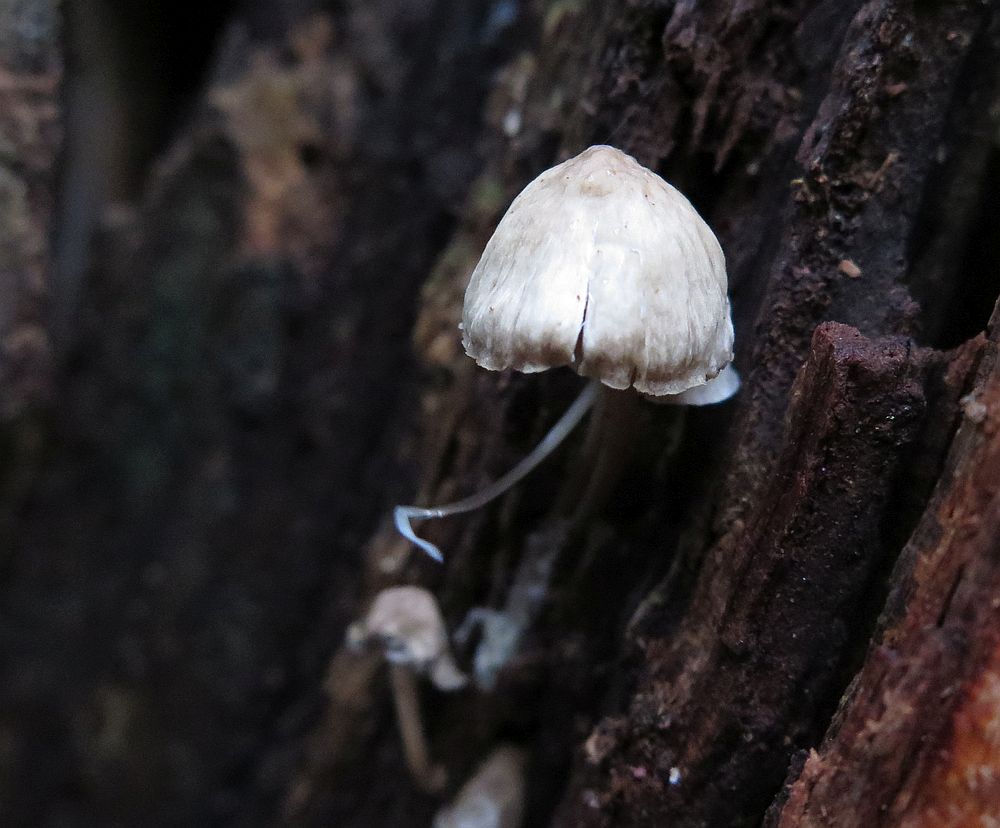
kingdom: Fungi
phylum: Basidiomycota
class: Agaricomycetes
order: Agaricales
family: Mycenaceae
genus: Mycena
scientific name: Mycena galericulata
